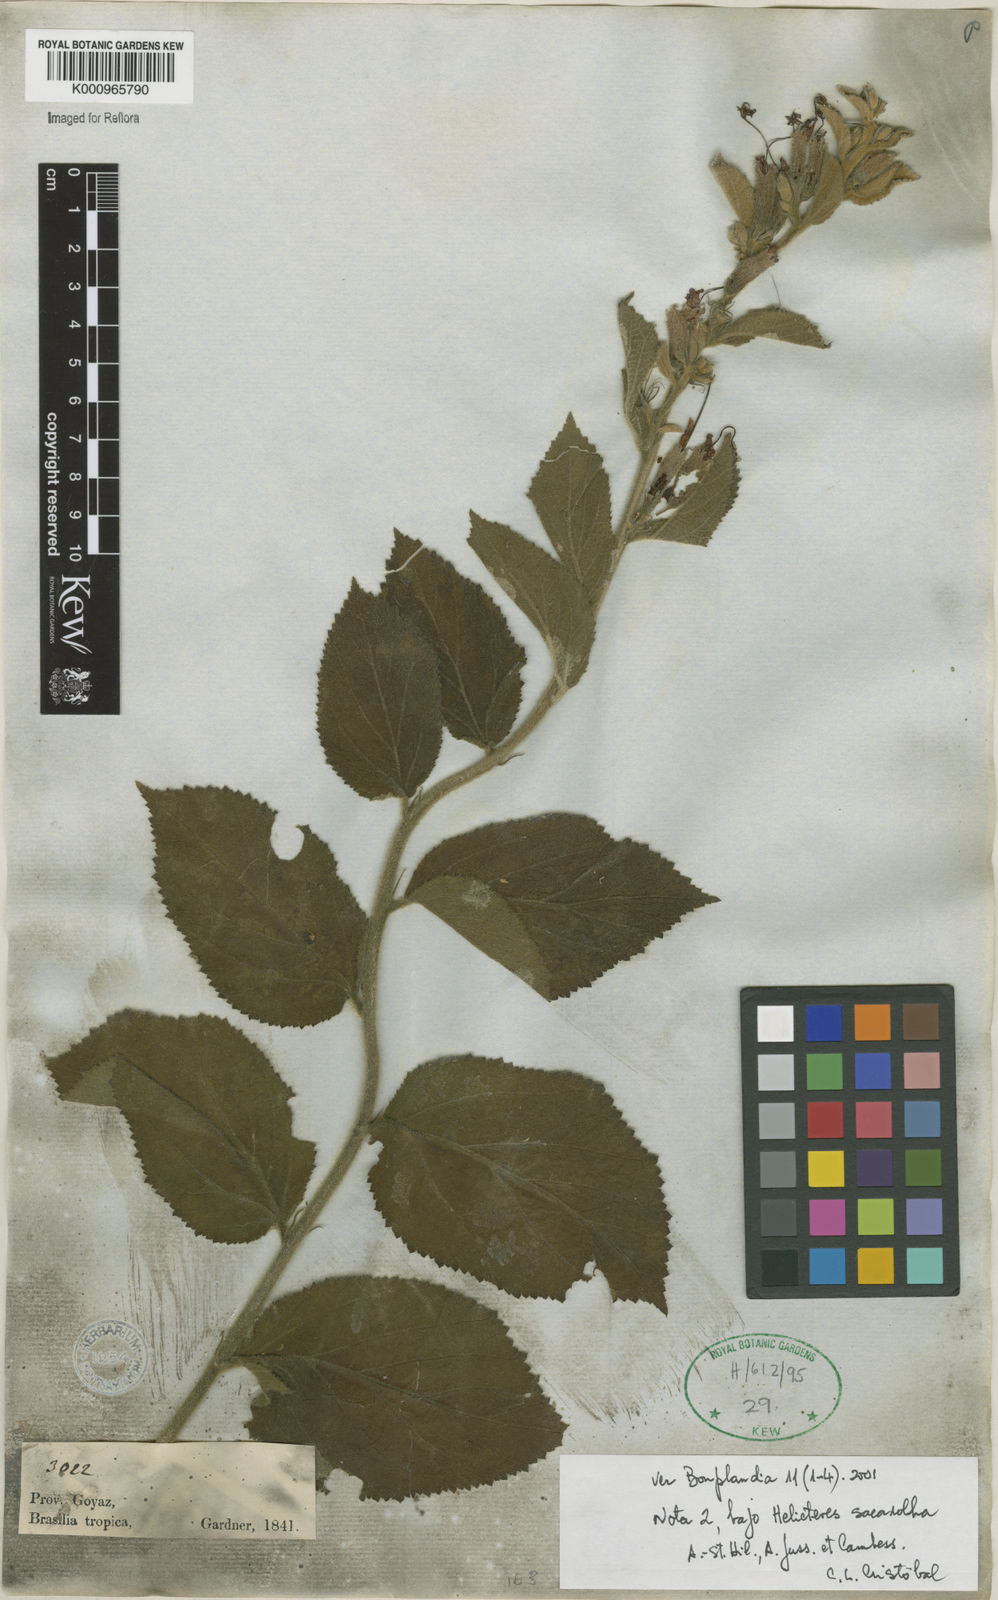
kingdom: Plantae
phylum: Tracheophyta
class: Magnoliopsida
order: Malvales
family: Malvaceae
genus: Helicteres
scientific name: Helicteres
